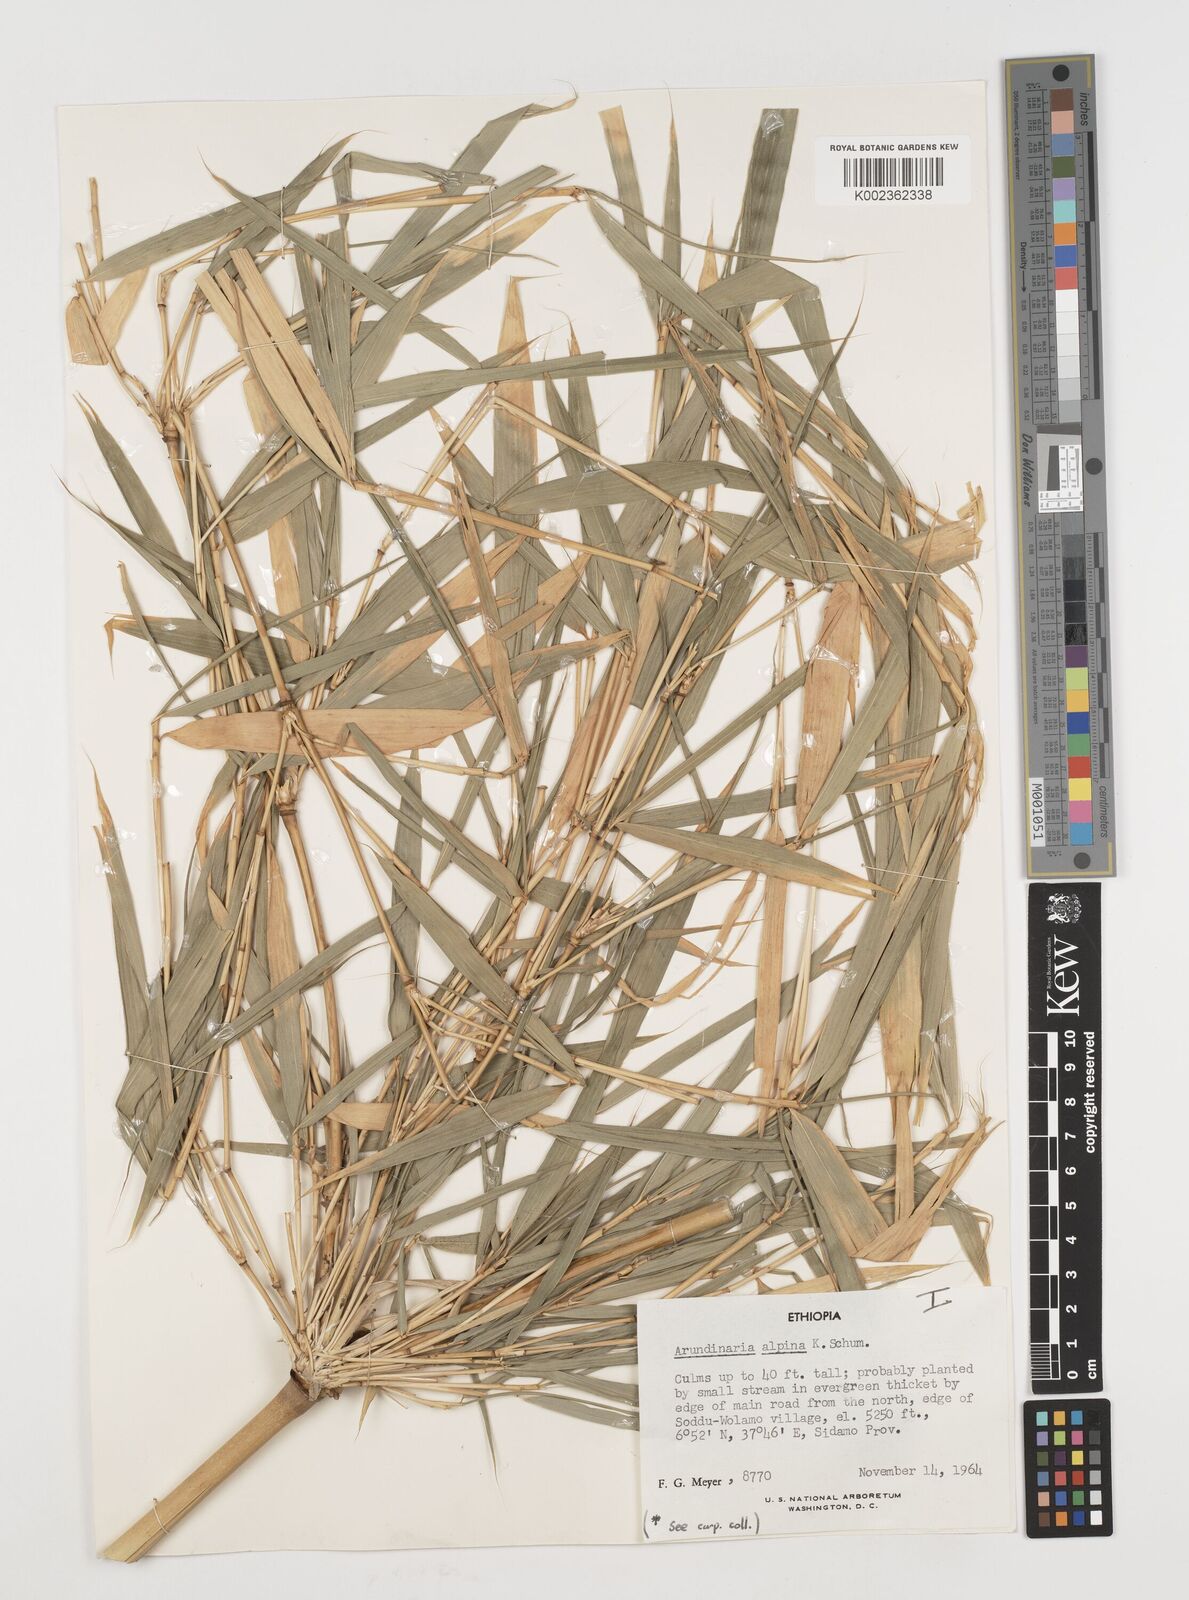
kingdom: Plantae
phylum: Tracheophyta
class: Liliopsida
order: Poales
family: Poaceae
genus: Oldeania
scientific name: Oldeania alpina
